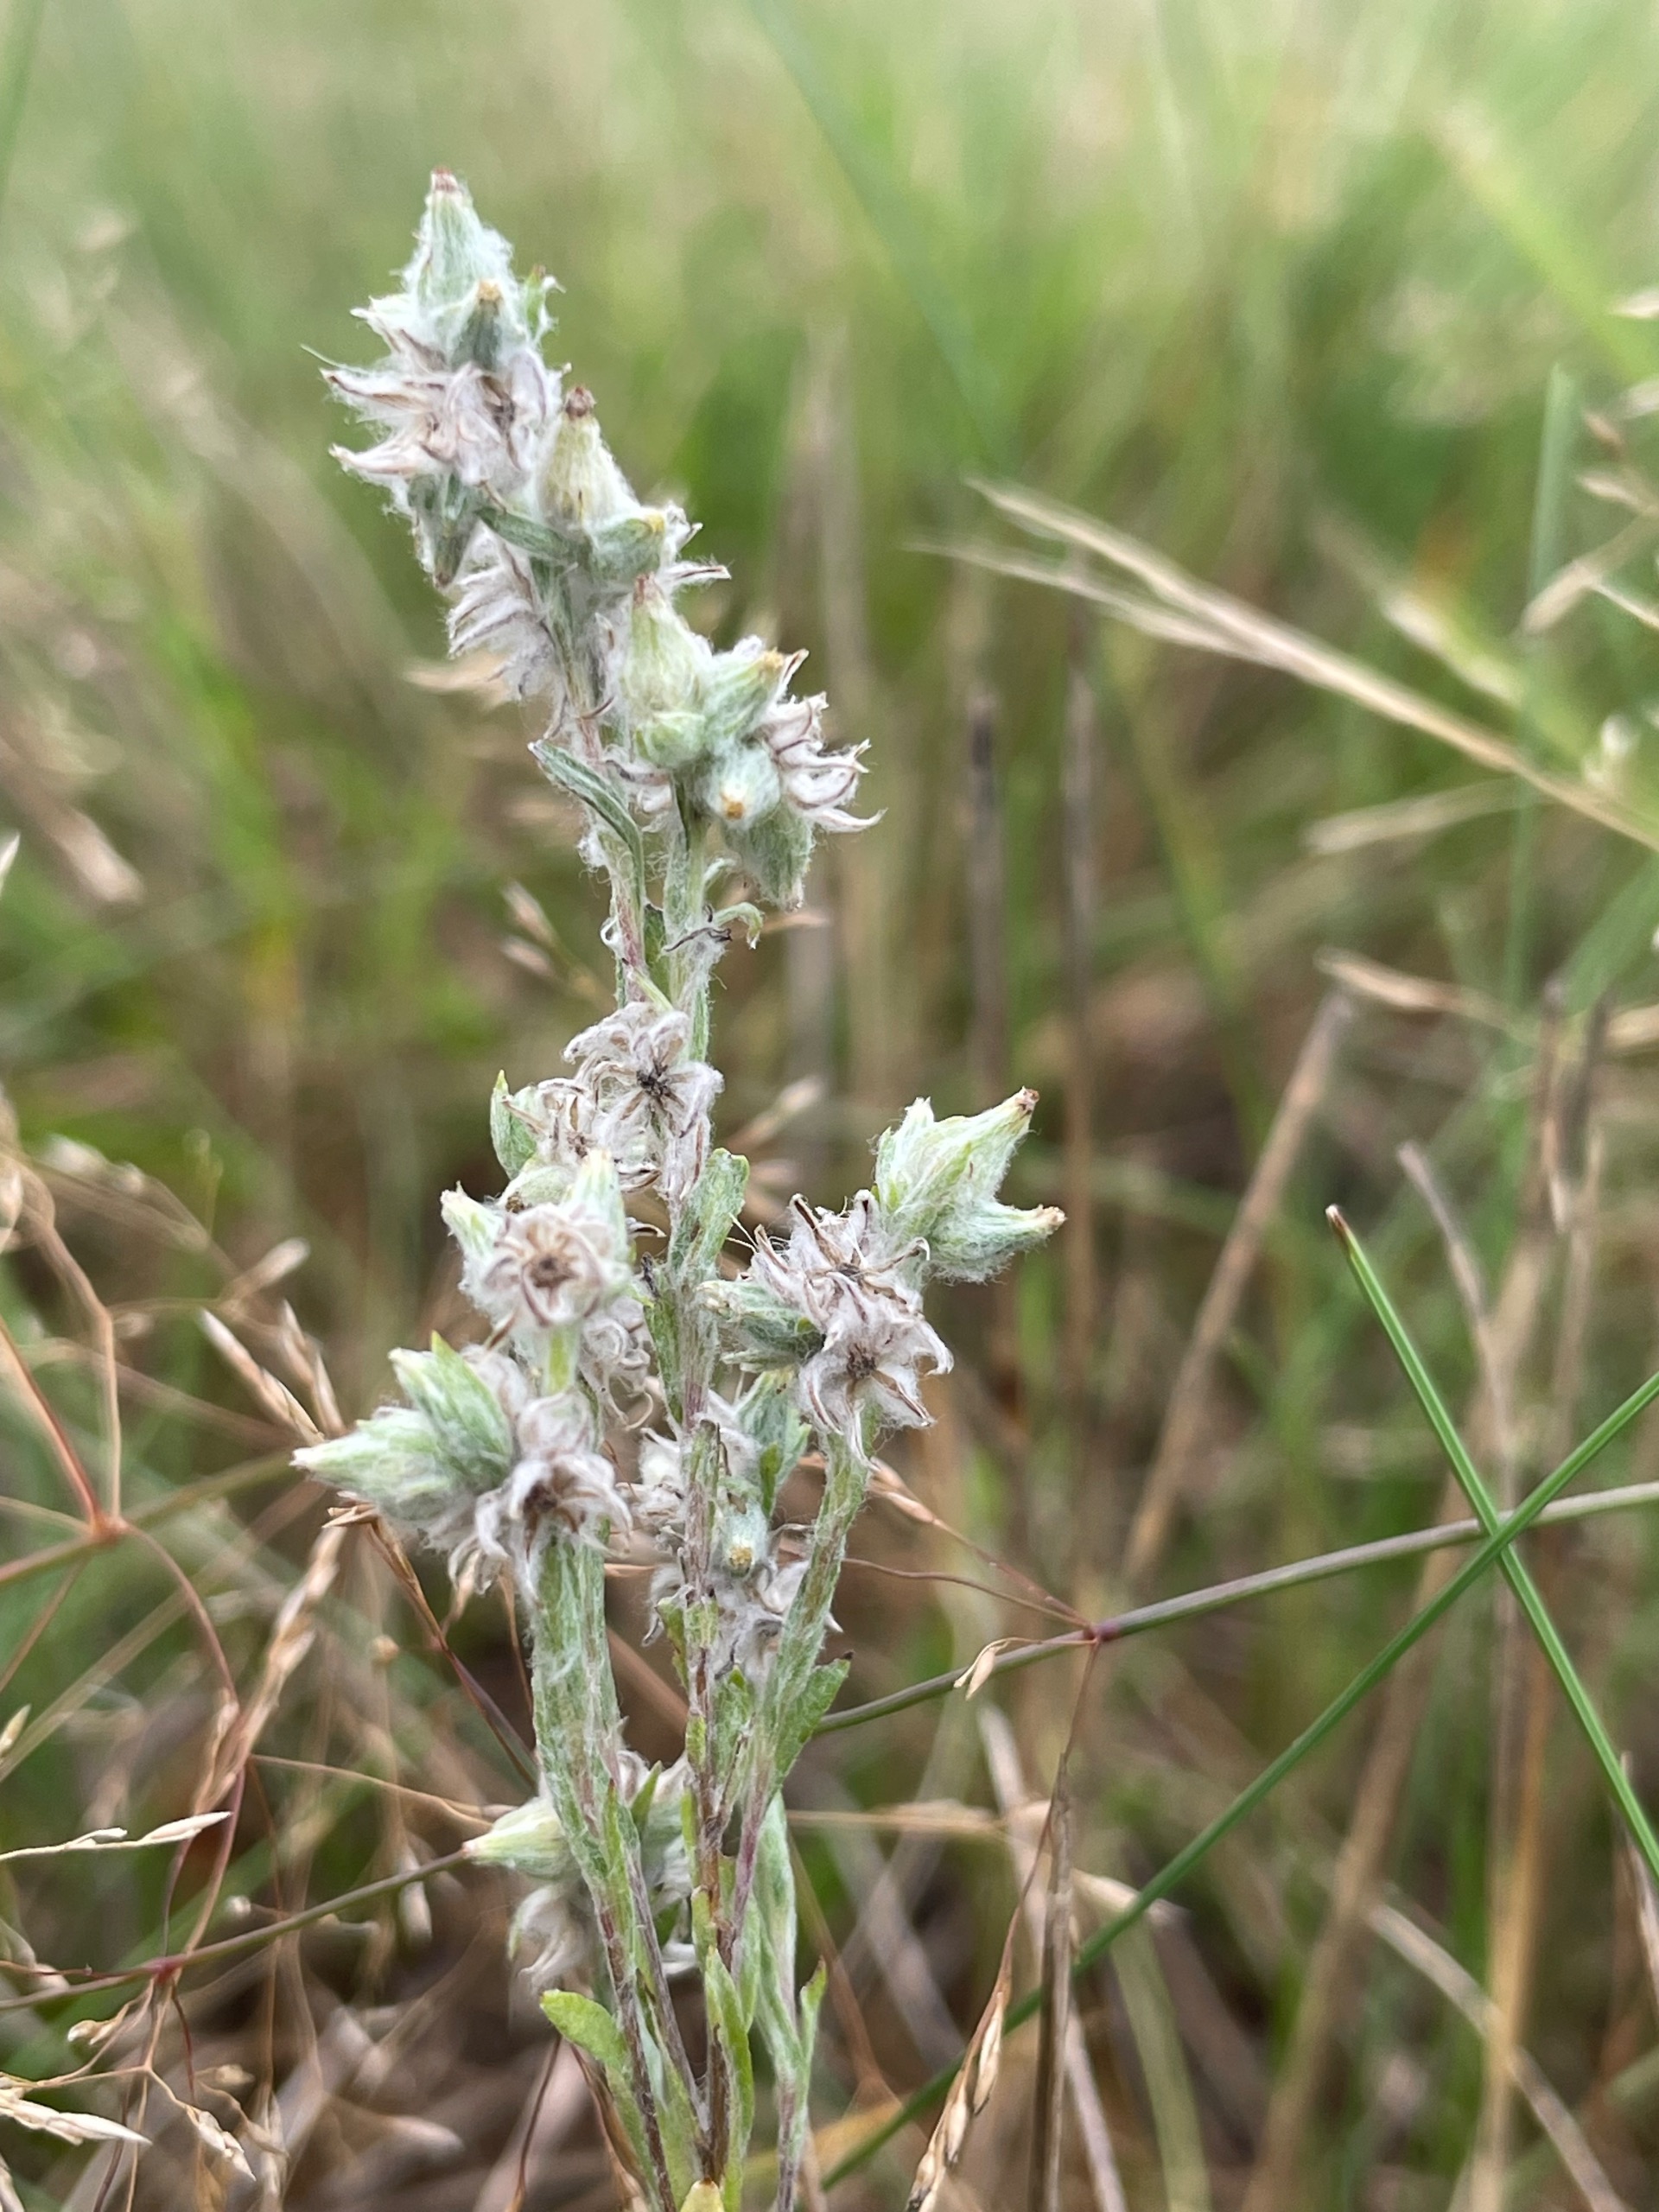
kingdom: Plantae
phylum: Tracheophyta
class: Magnoliopsida
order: Asterales
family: Asteraceae
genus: Filago
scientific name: Filago arvensis
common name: Ager-museurt
